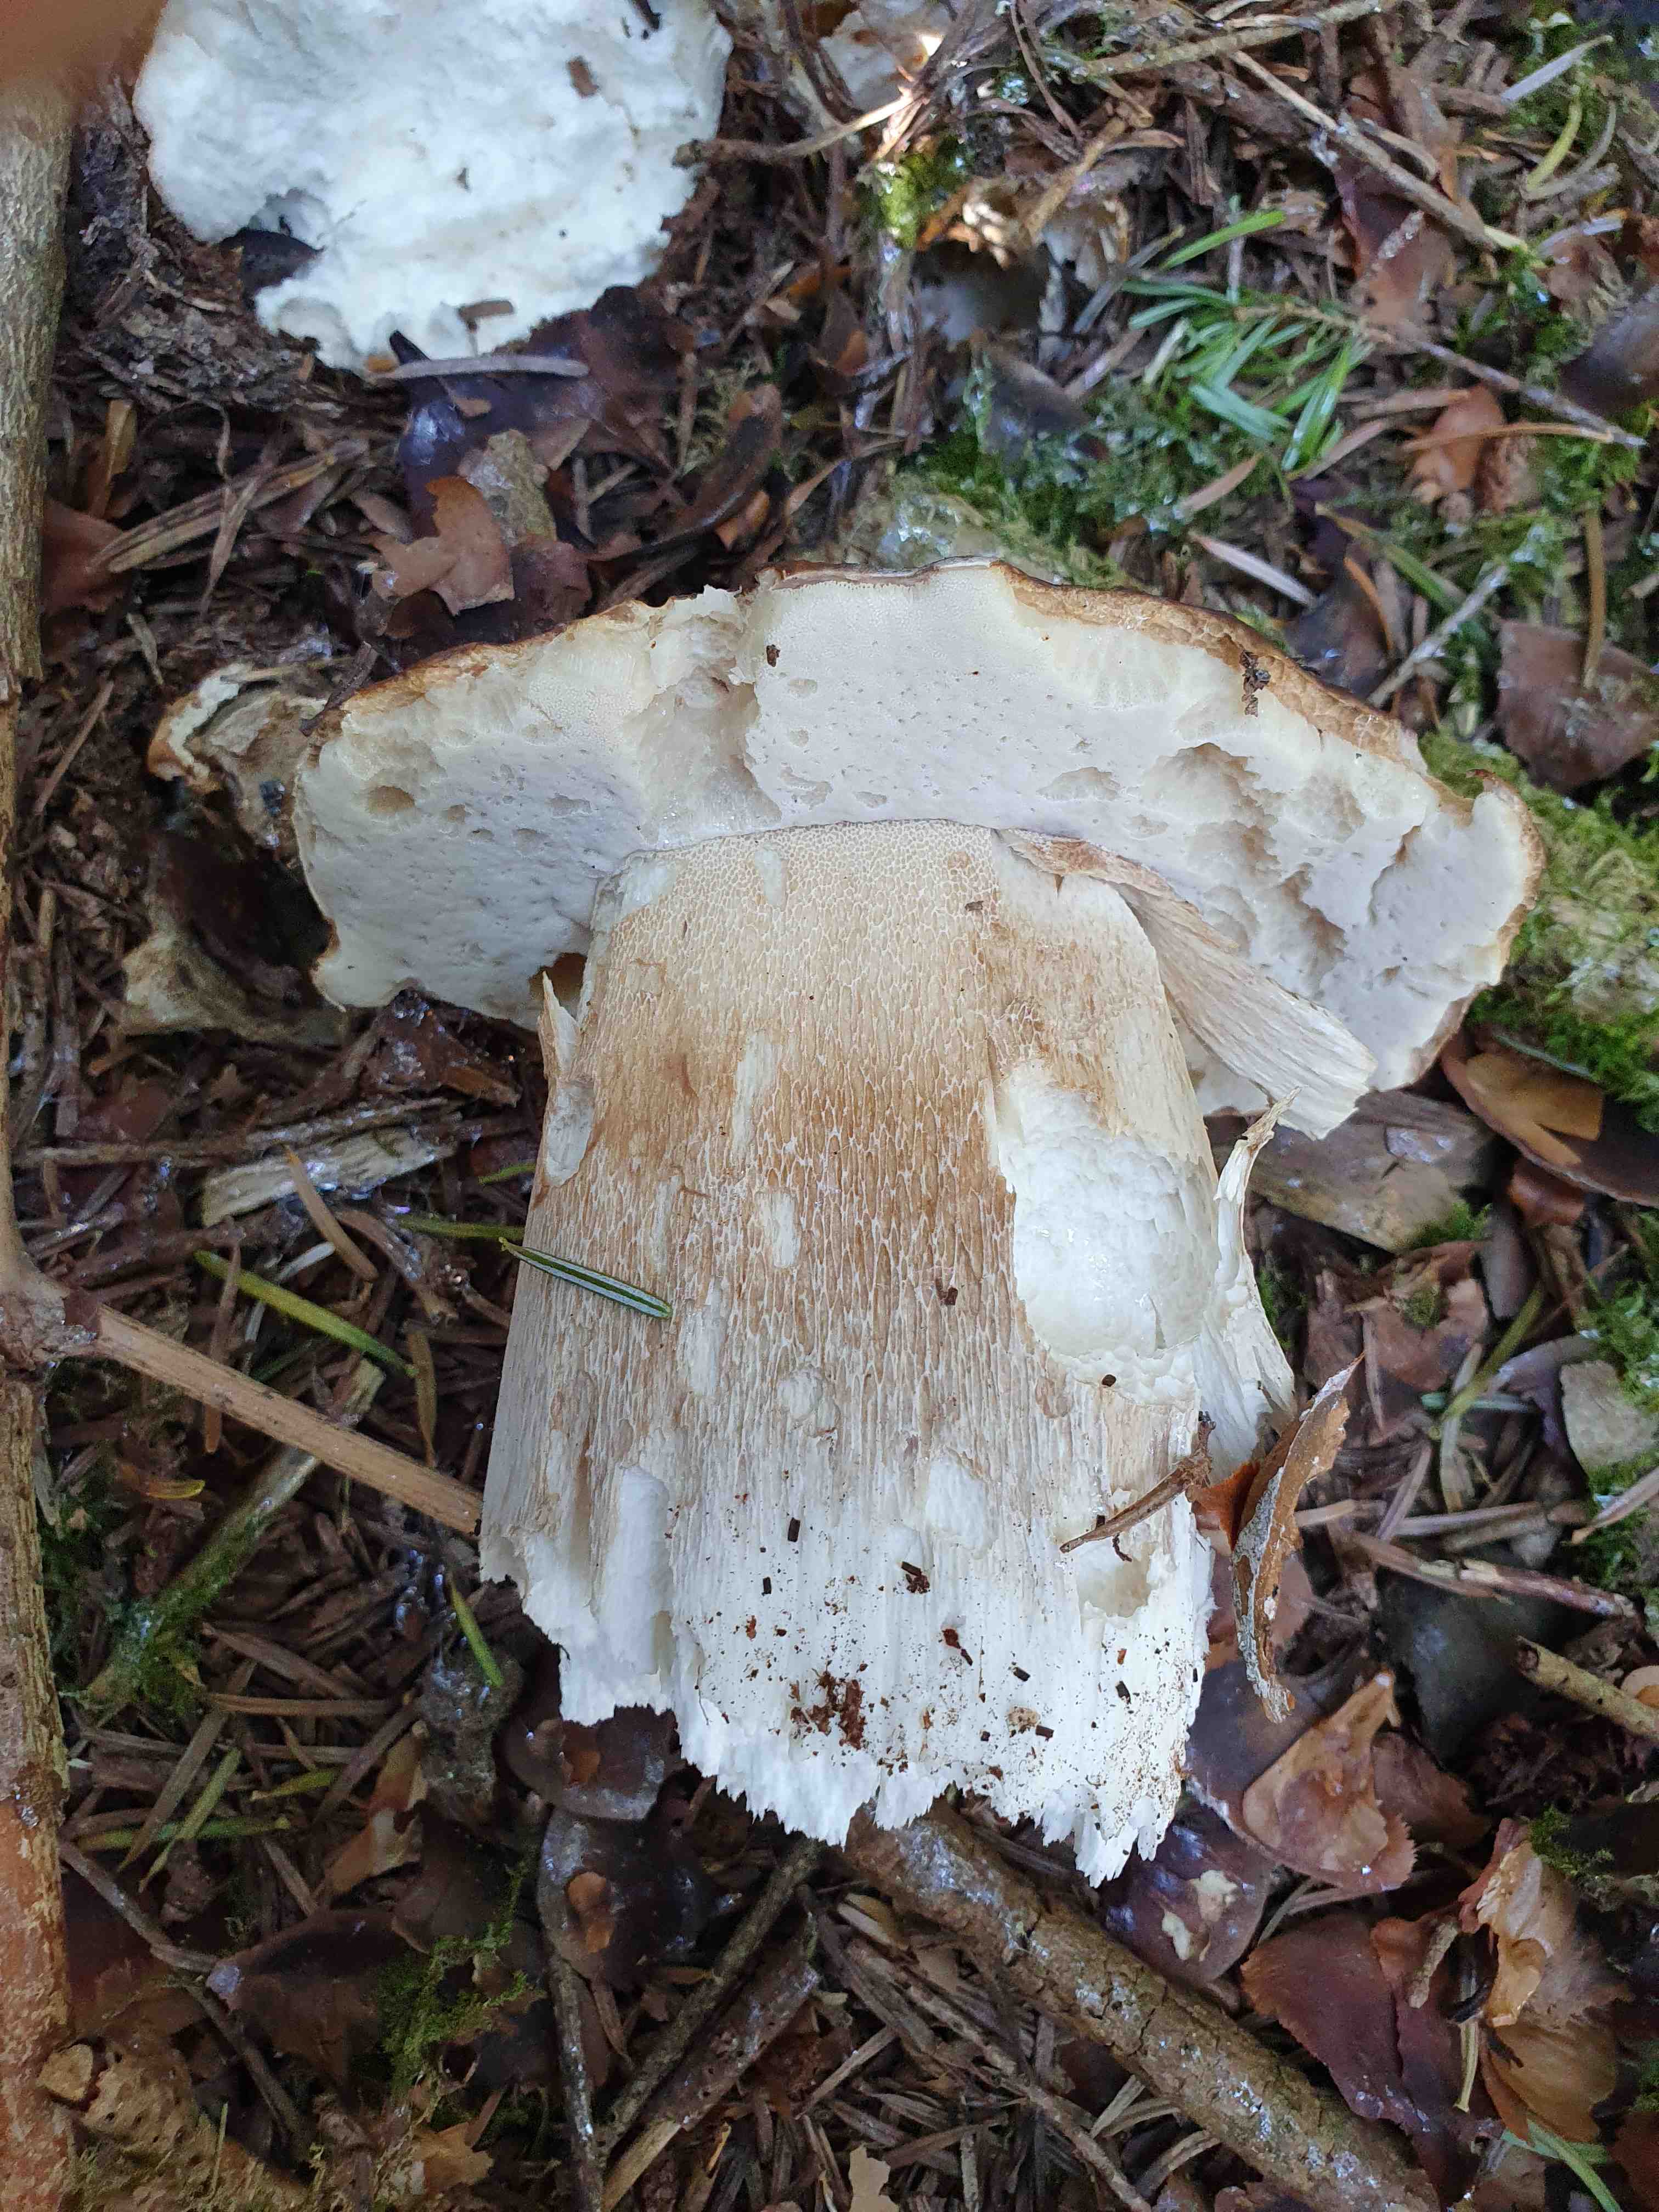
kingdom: Fungi
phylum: Basidiomycota
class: Agaricomycetes
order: Boletales
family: Boletaceae
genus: Boletus
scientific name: Boletus edulis
